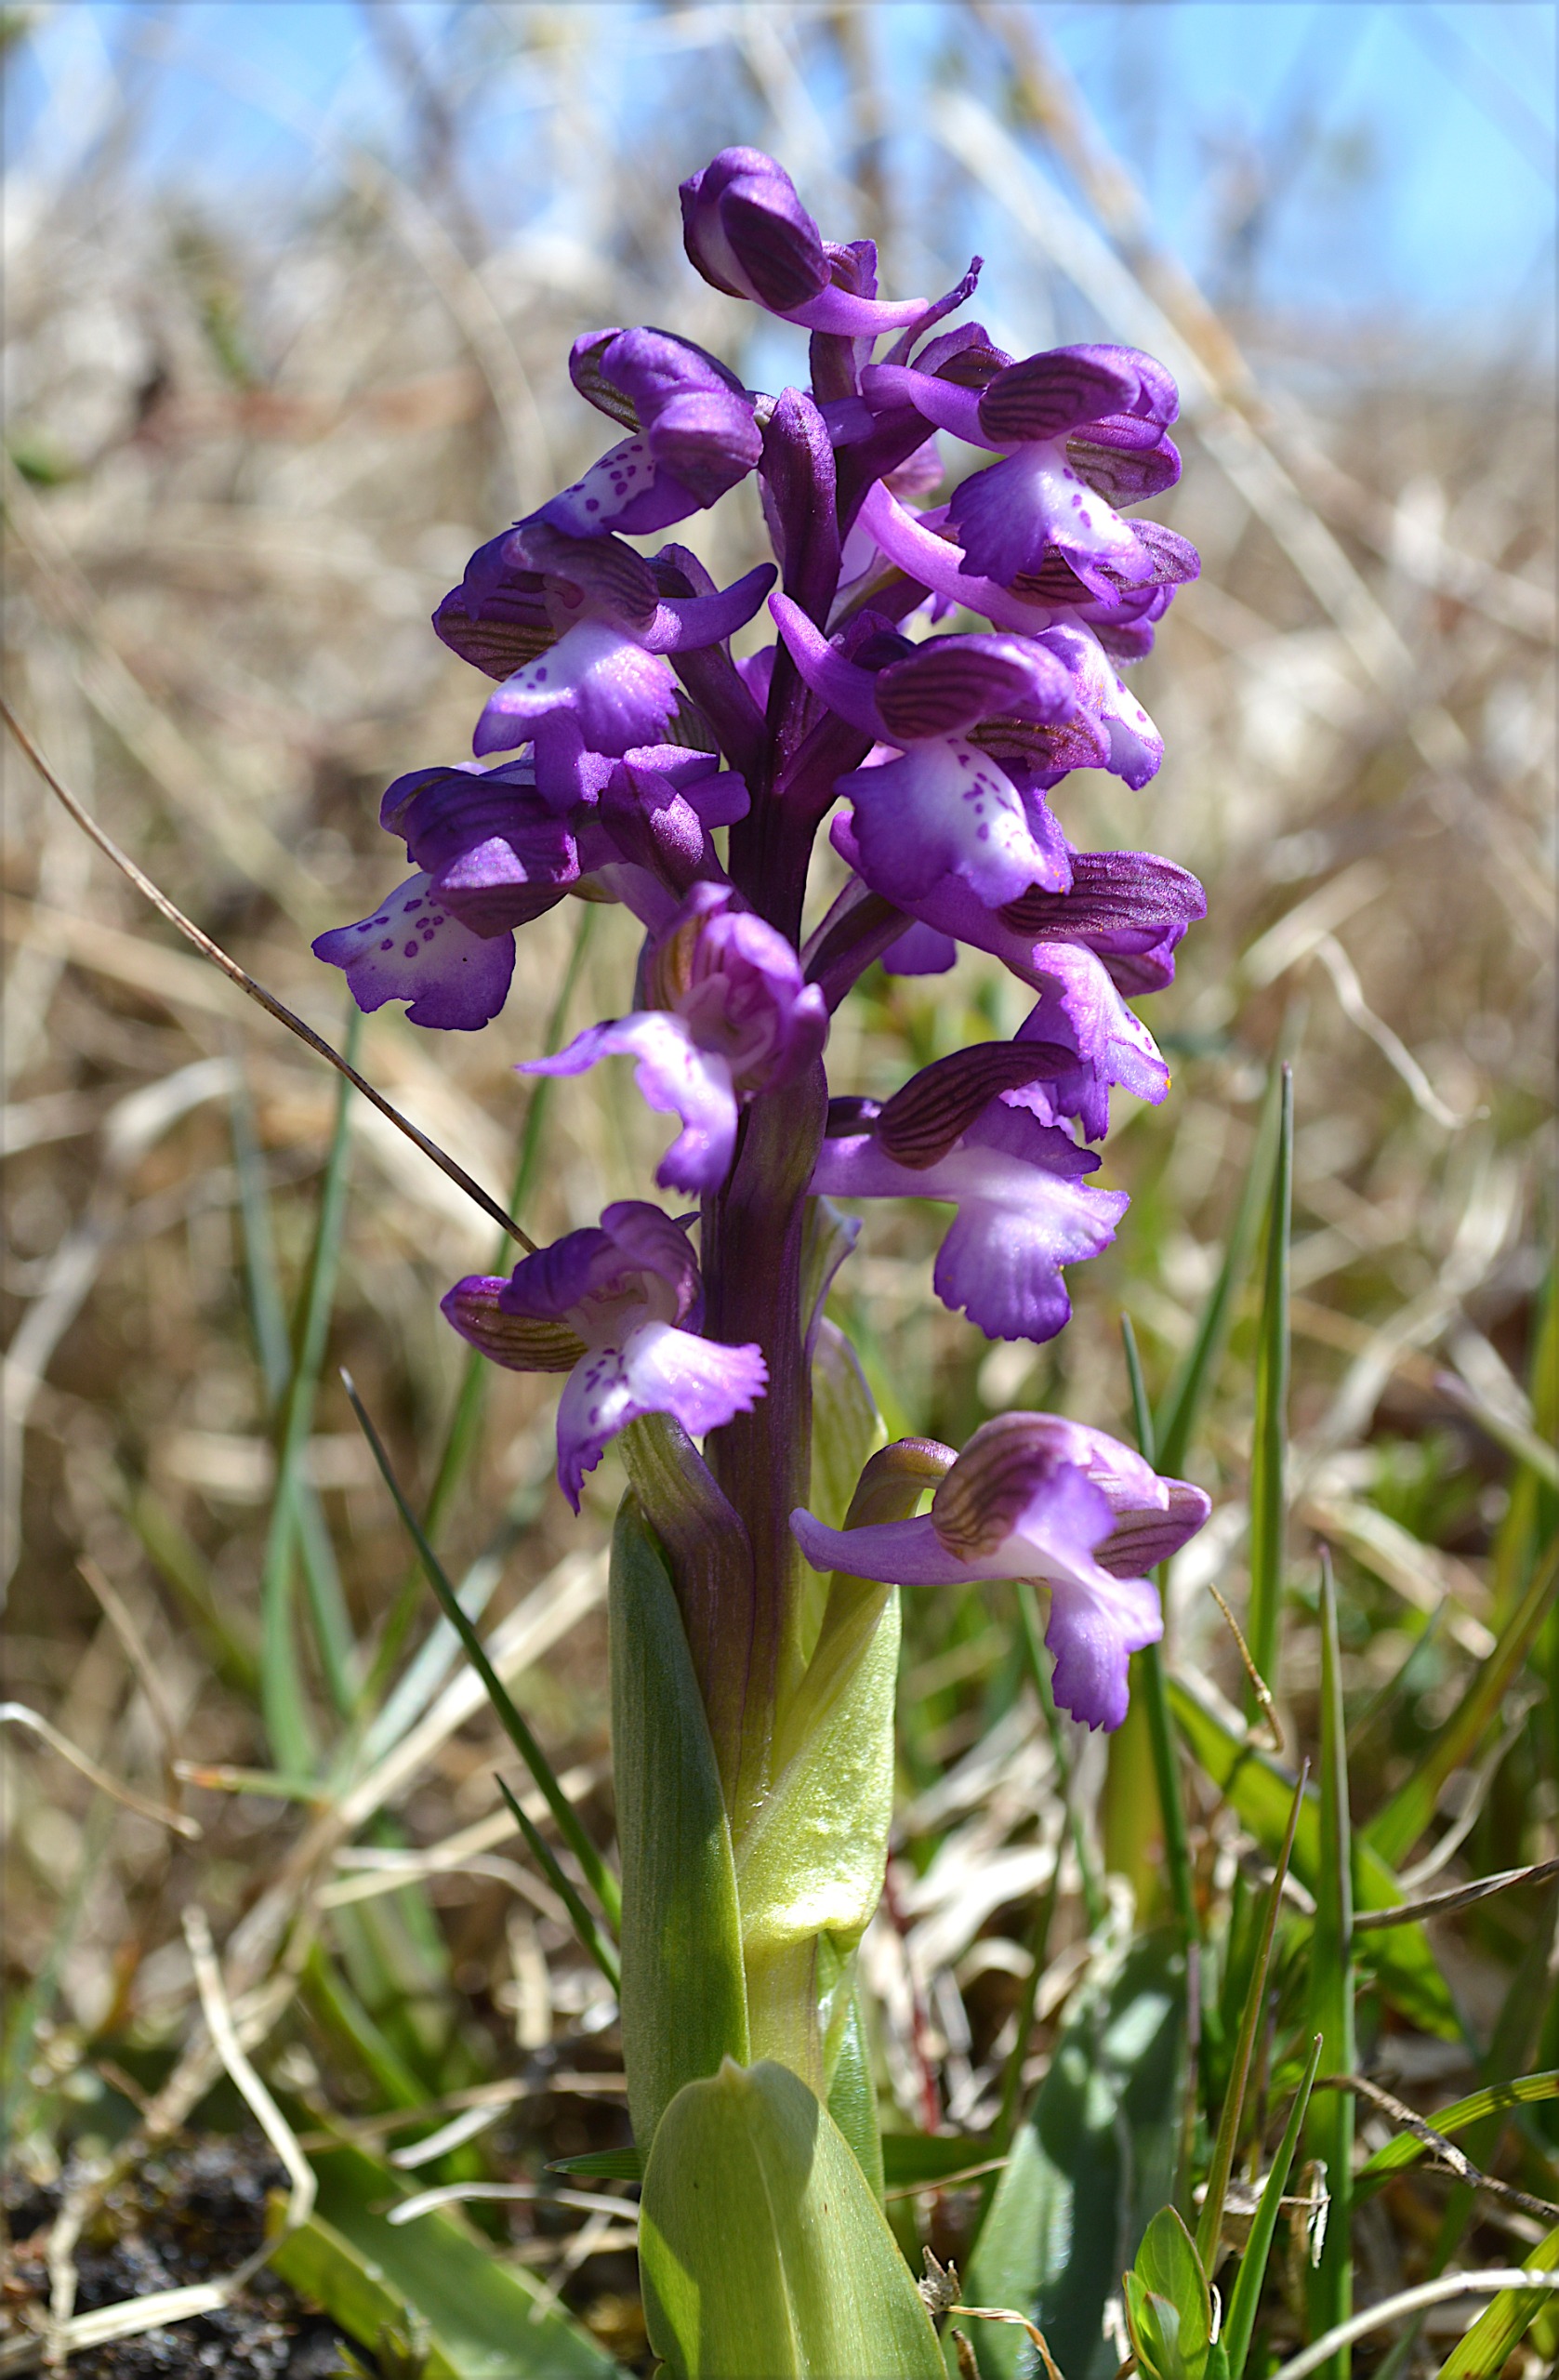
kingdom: Plantae
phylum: Tracheophyta
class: Liliopsida
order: Asparagales
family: Orchidaceae
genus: Anacamptis
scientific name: Anacamptis morio
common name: Salepgøgeurt
